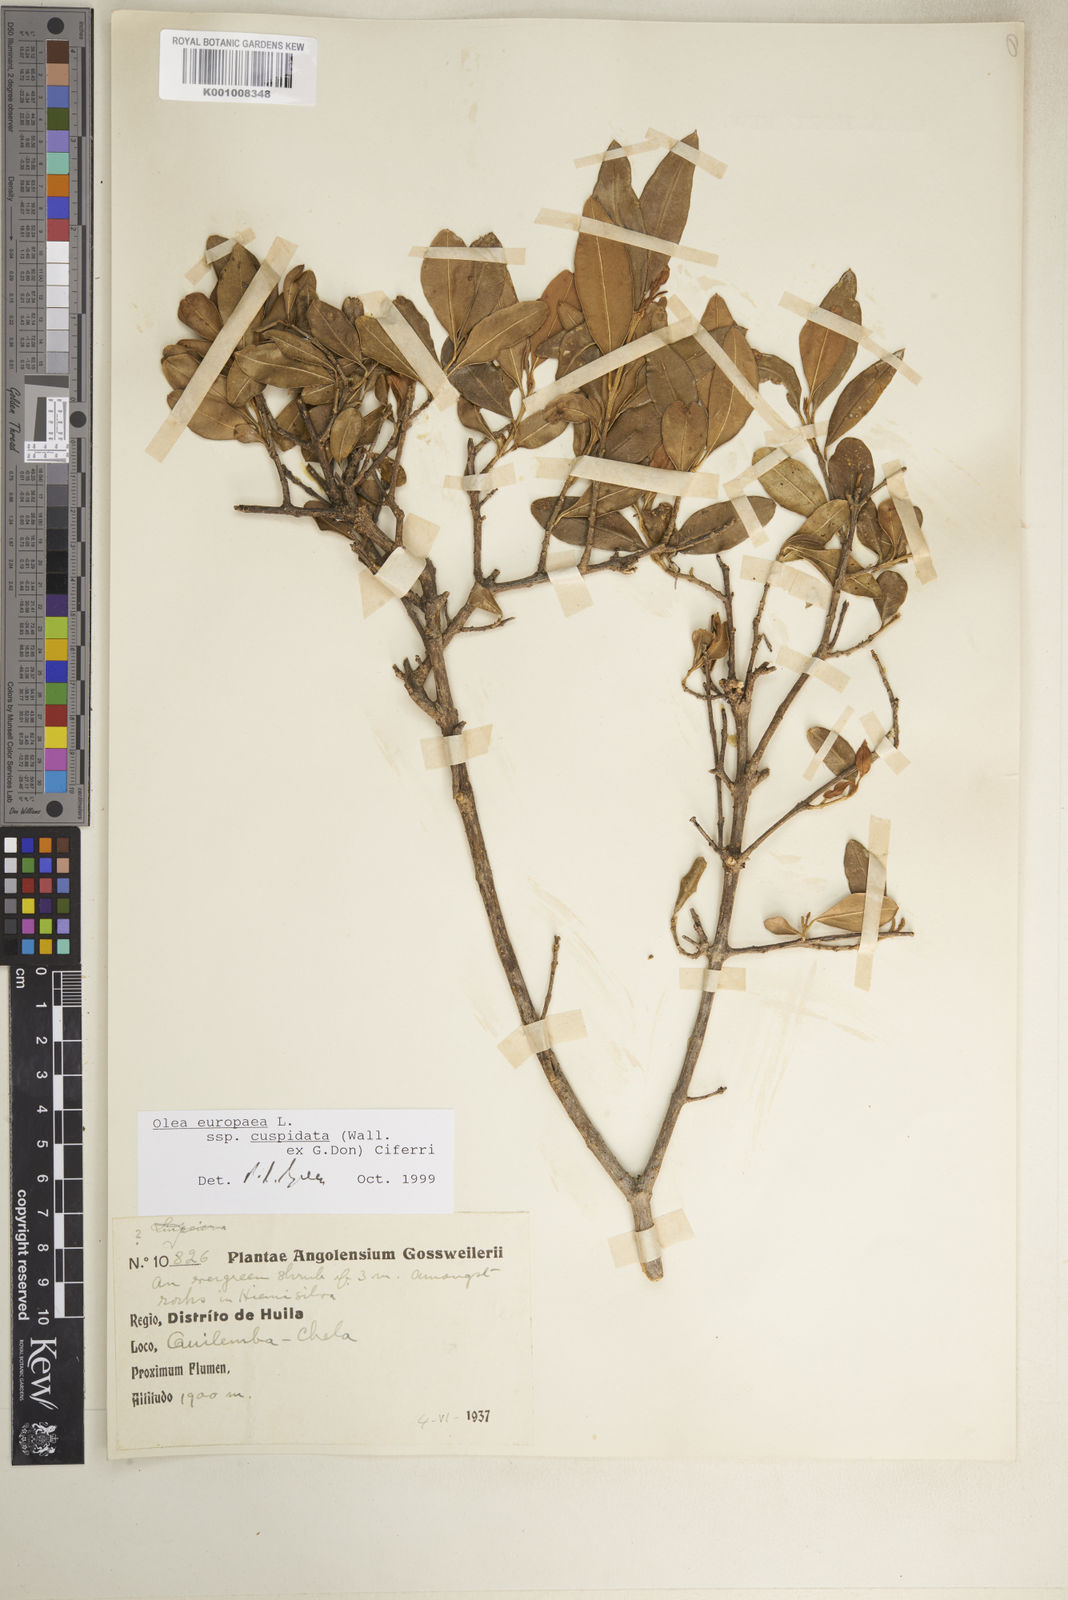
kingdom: Plantae
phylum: Tracheophyta
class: Magnoliopsida
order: Lamiales
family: Oleaceae
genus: Olea
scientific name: Olea europaea
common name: Olive
